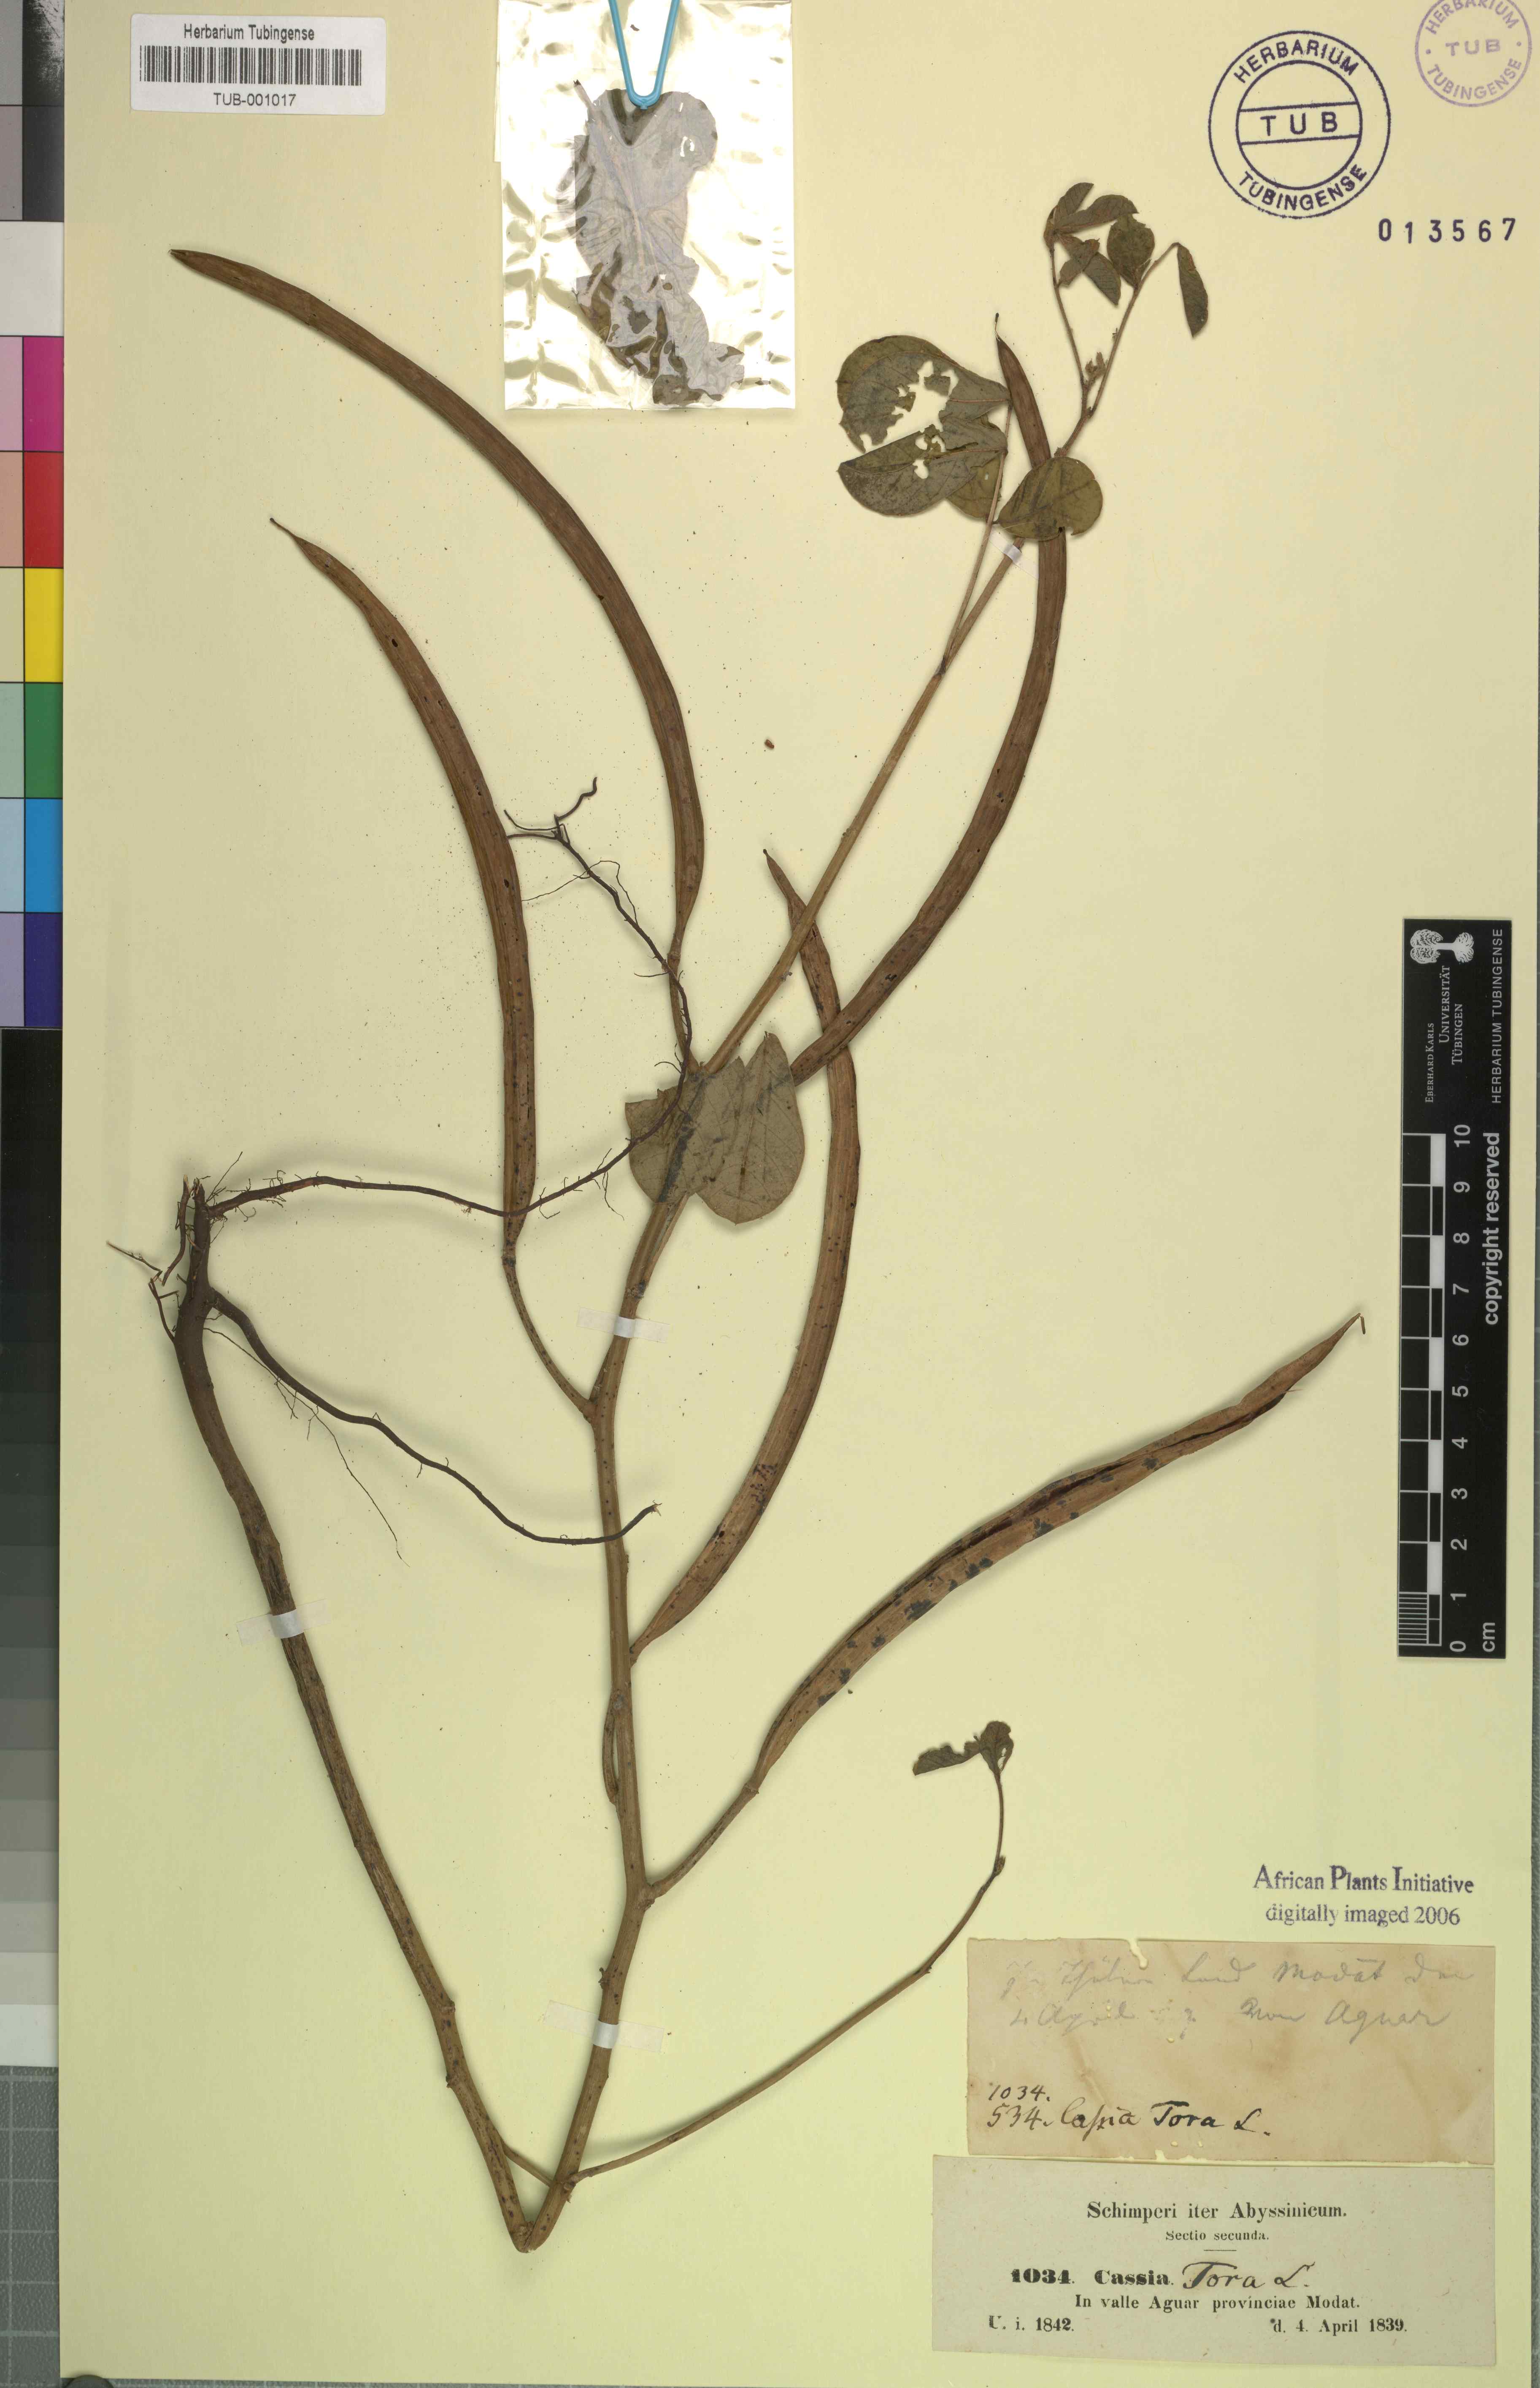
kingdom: Plantae
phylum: Tracheophyta
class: Magnoliopsida
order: Fabales
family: Fabaceae
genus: Senna
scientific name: Senna tora
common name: Sickle senna
